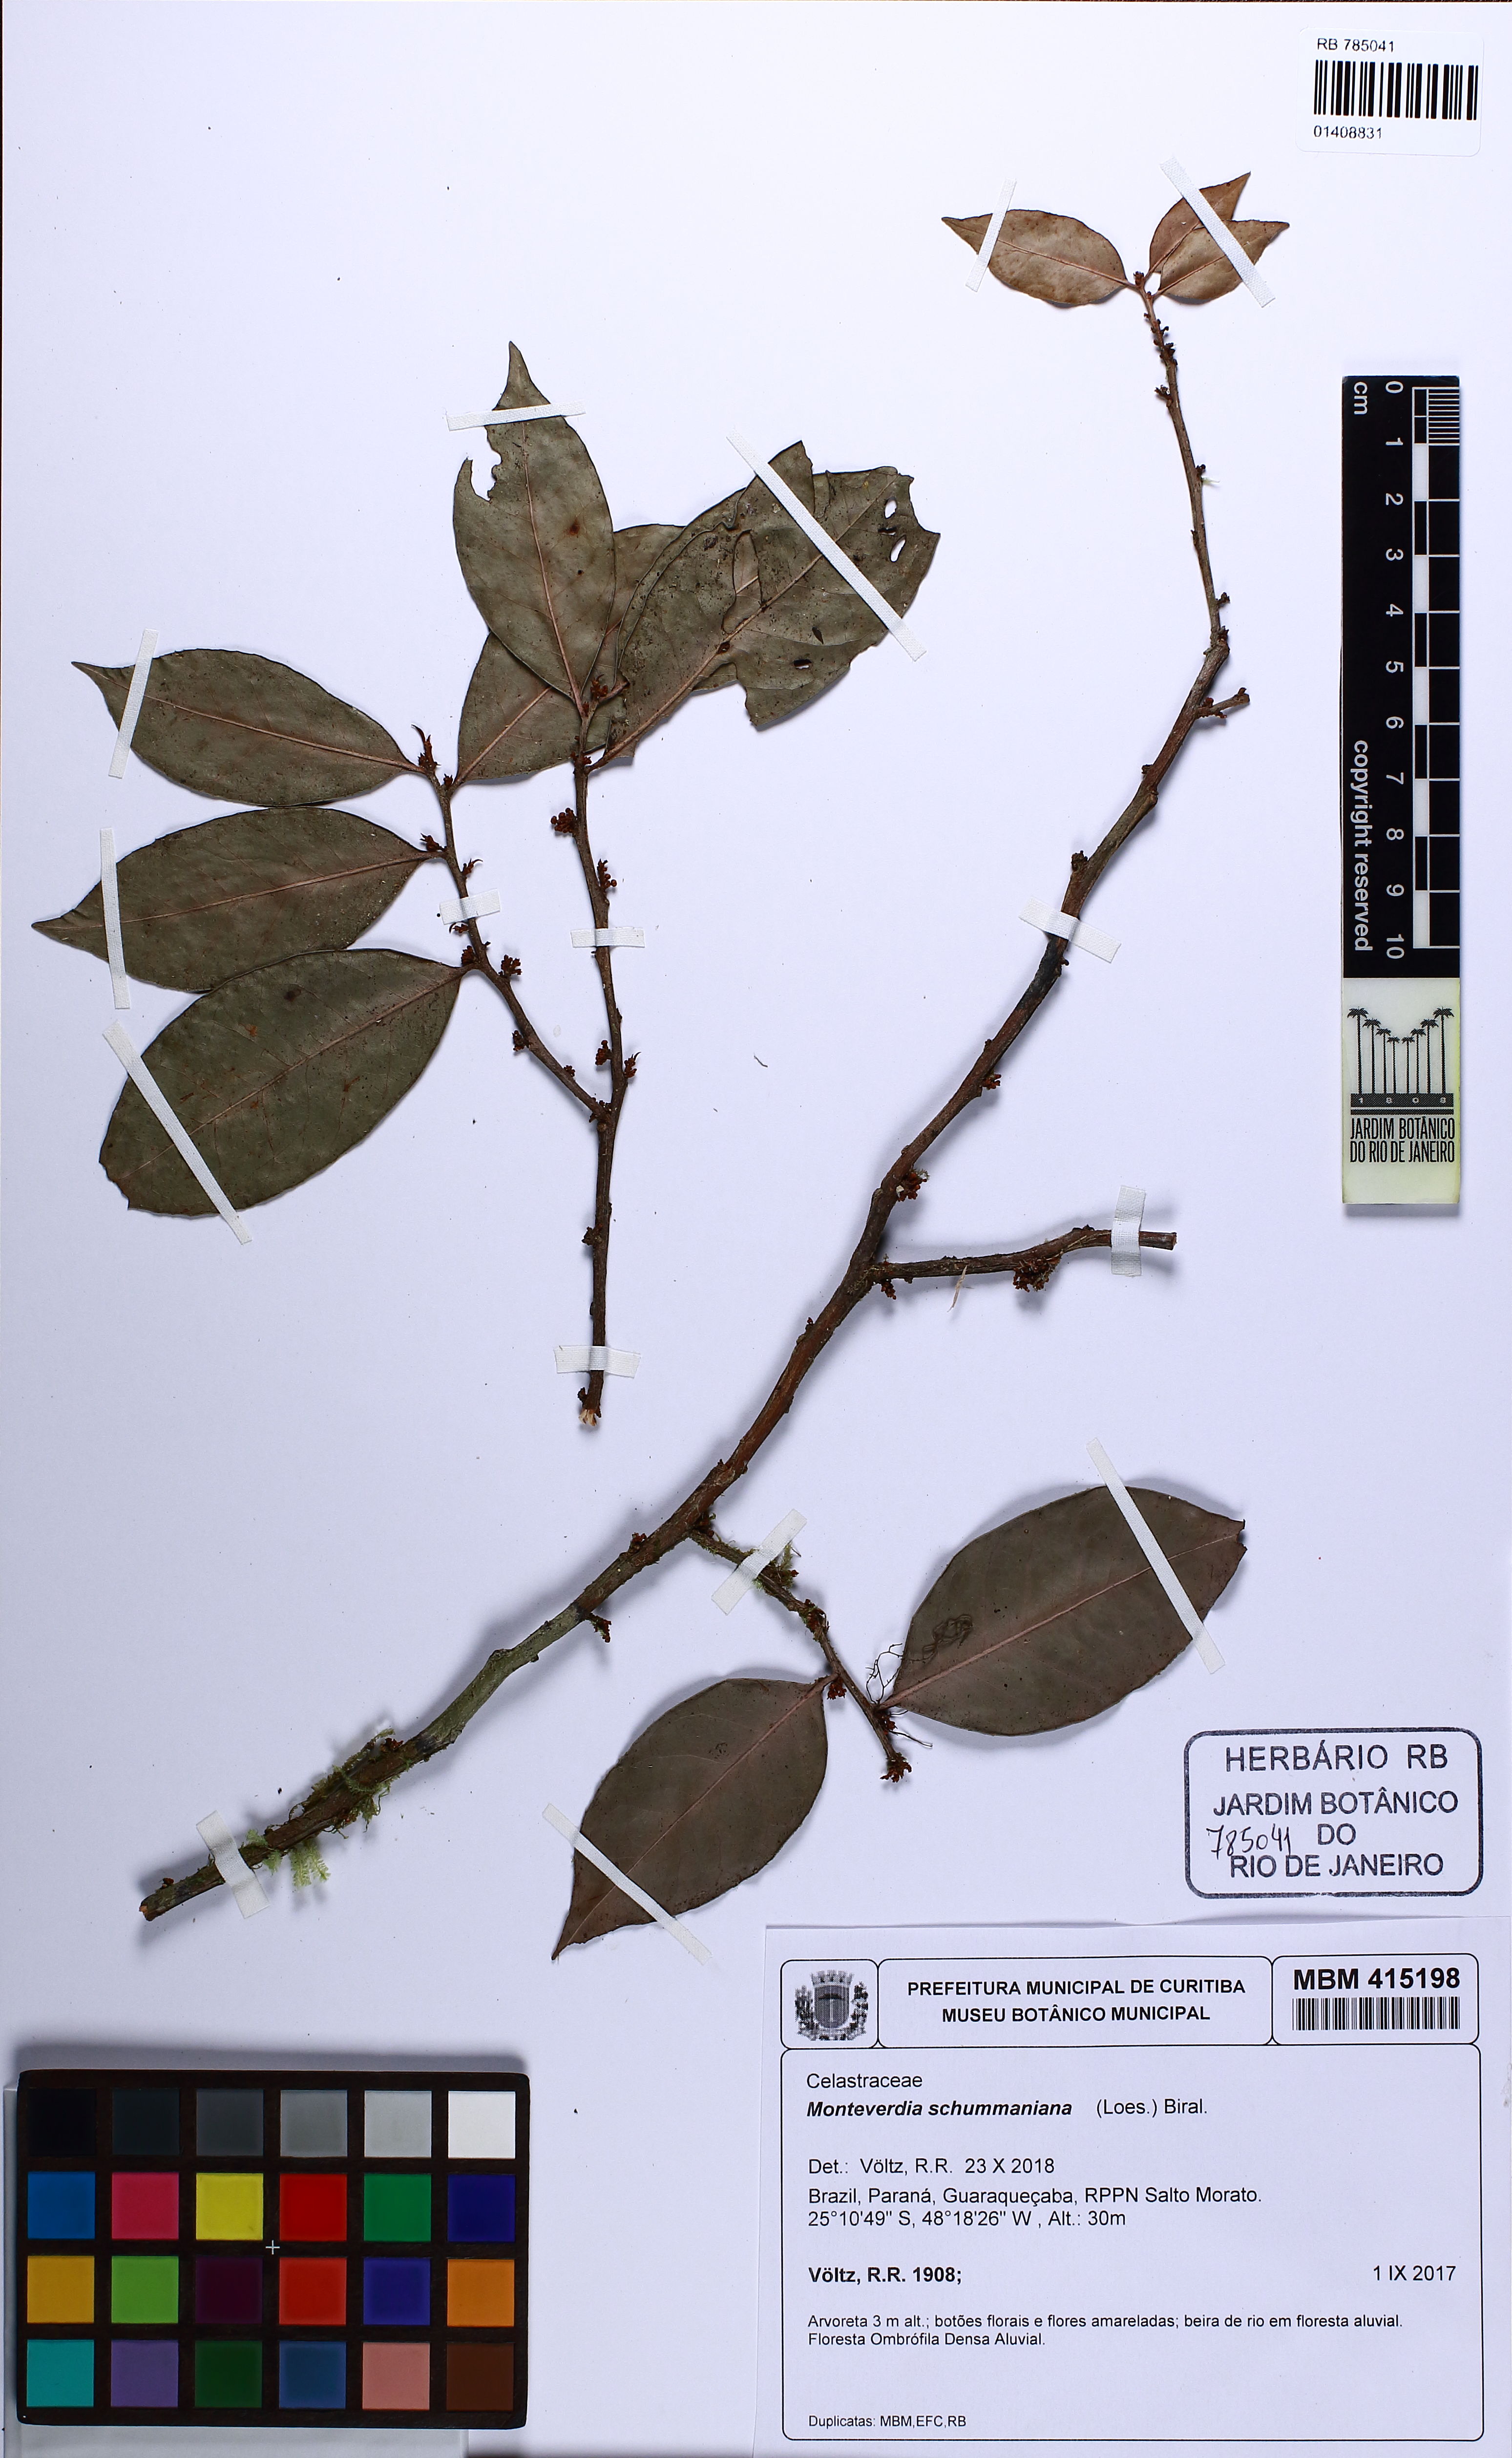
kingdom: Plantae
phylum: Tracheophyta
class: Magnoliopsida
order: Celastrales
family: Celastraceae
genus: Monteverdia
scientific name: Monteverdia schumanniana
